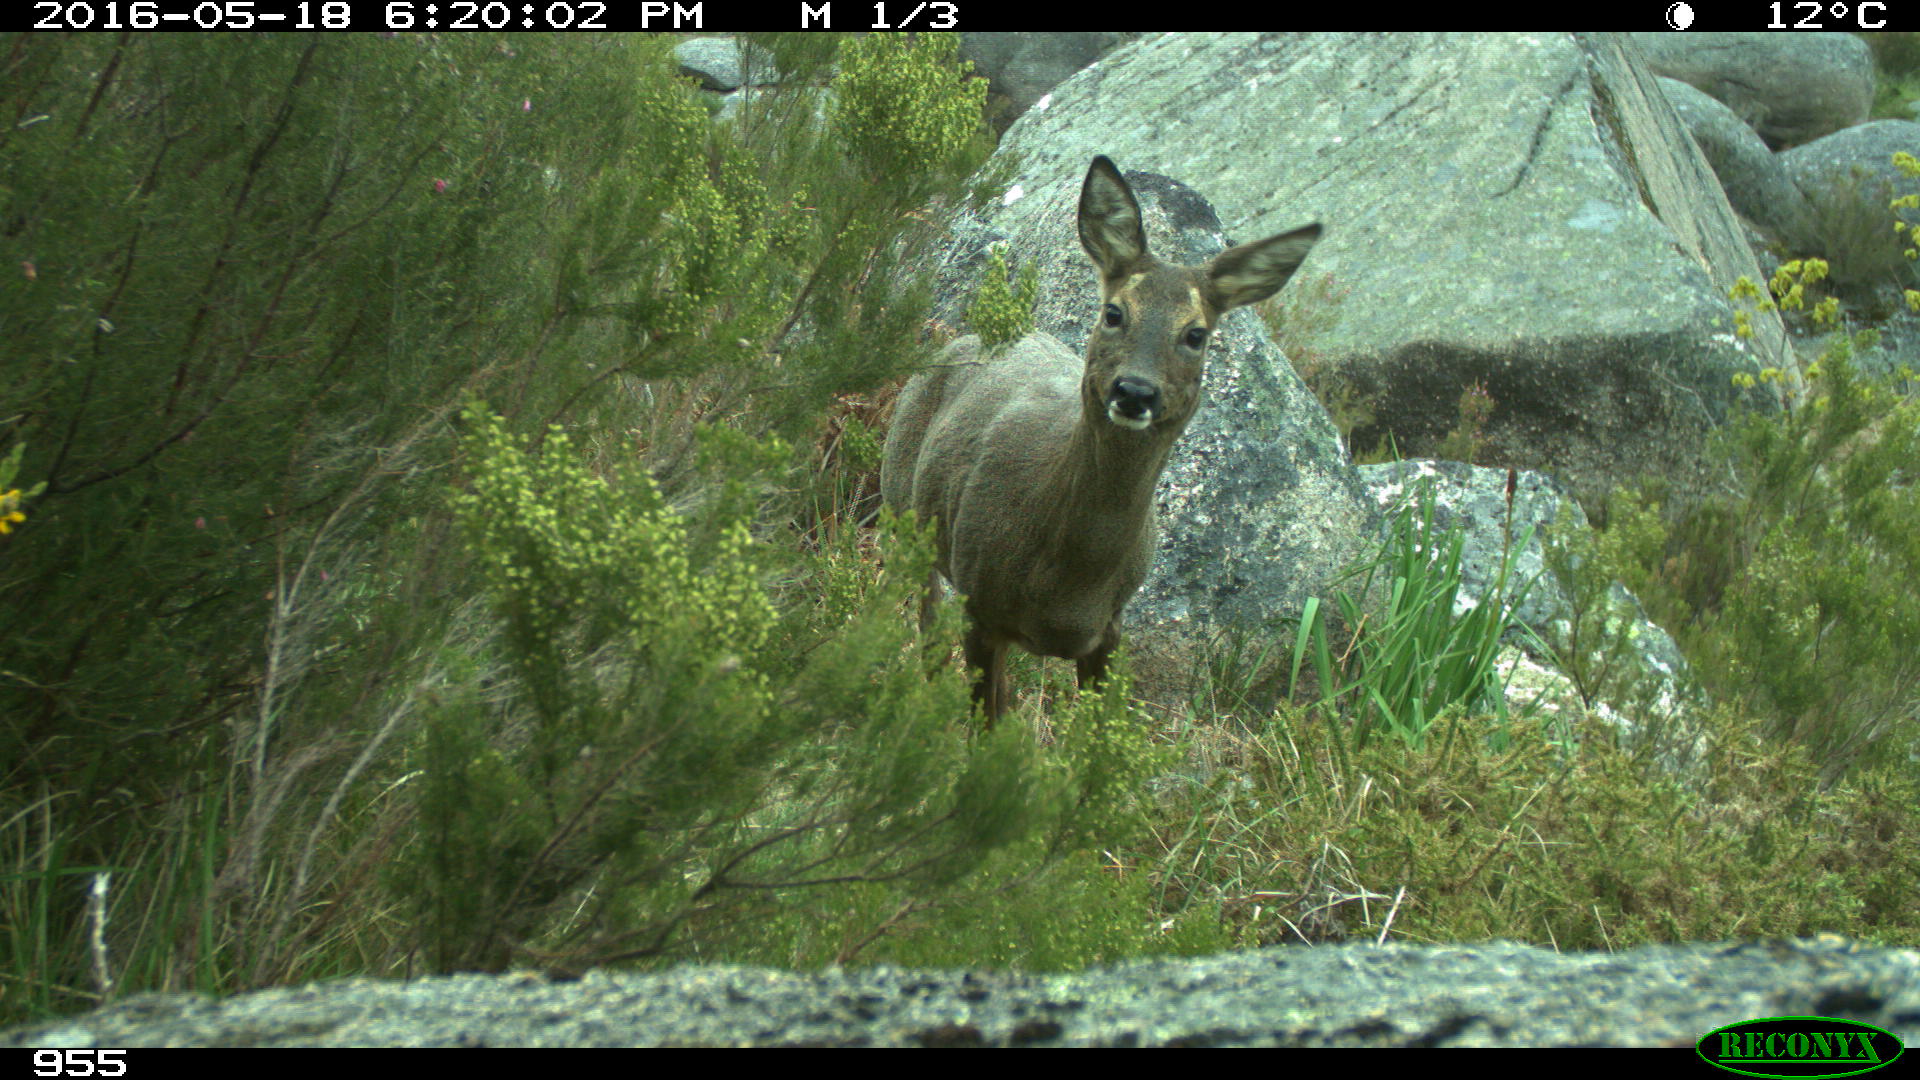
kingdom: Animalia
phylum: Chordata
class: Mammalia
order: Artiodactyla
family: Cervidae
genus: Capreolus
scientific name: Capreolus capreolus
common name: Western roe deer
